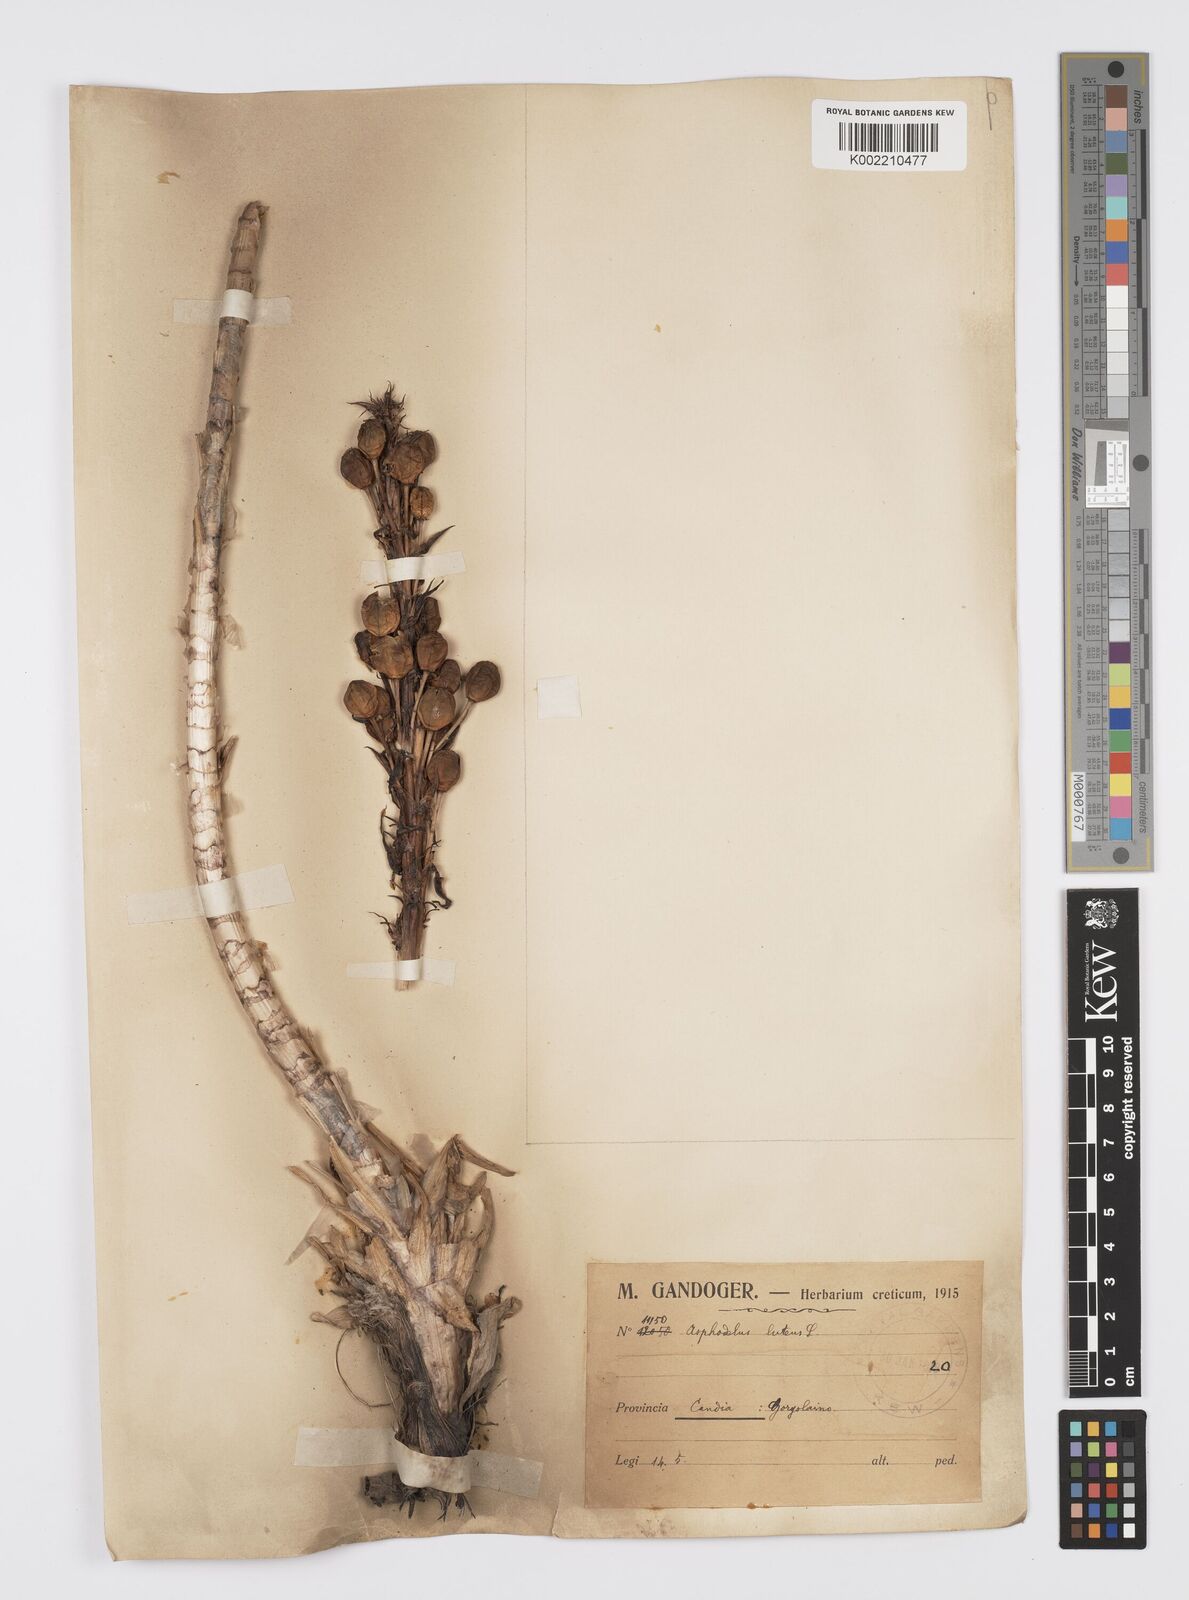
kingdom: Plantae
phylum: Tracheophyta
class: Liliopsida
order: Asparagales
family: Asphodelaceae
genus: Asphodeline
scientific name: Asphodeline lutea
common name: Yellow asphodel
